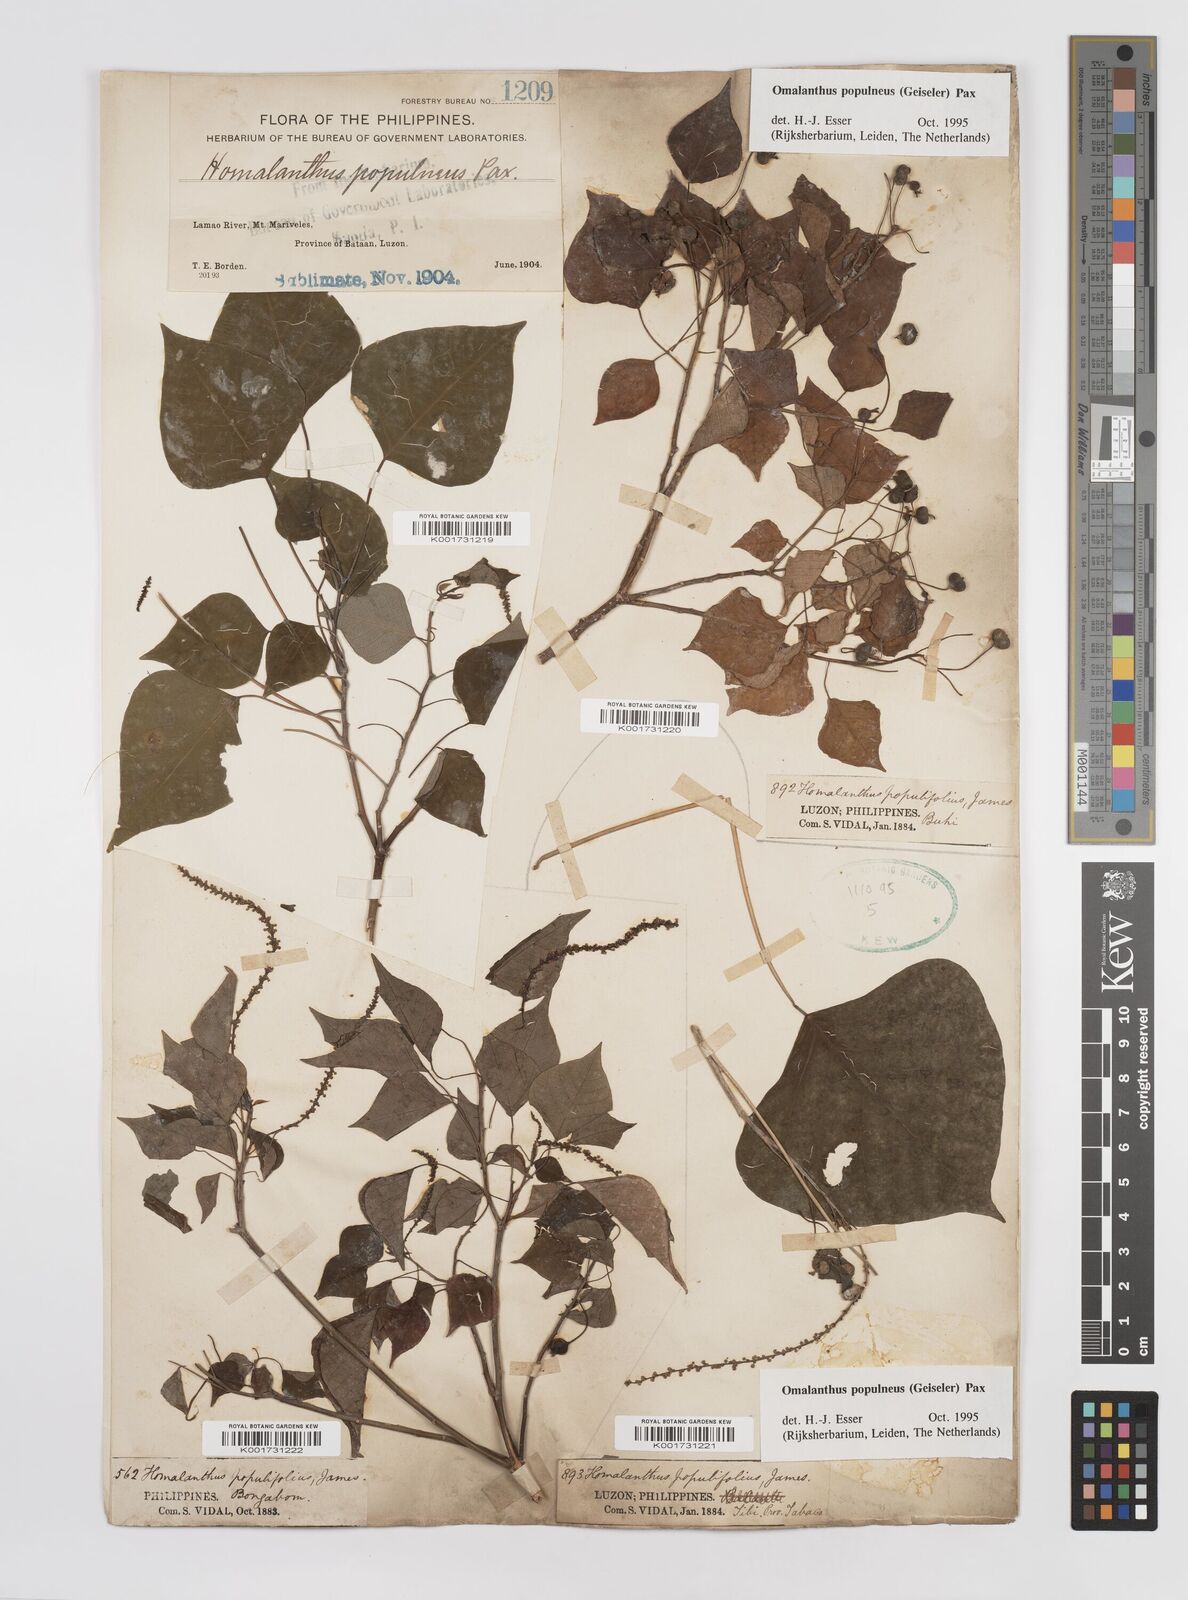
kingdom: Plantae
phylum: Tracheophyta
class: Magnoliopsida
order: Malpighiales
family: Euphorbiaceae
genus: Homalanthus
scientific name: Homalanthus populneus
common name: Spurge
